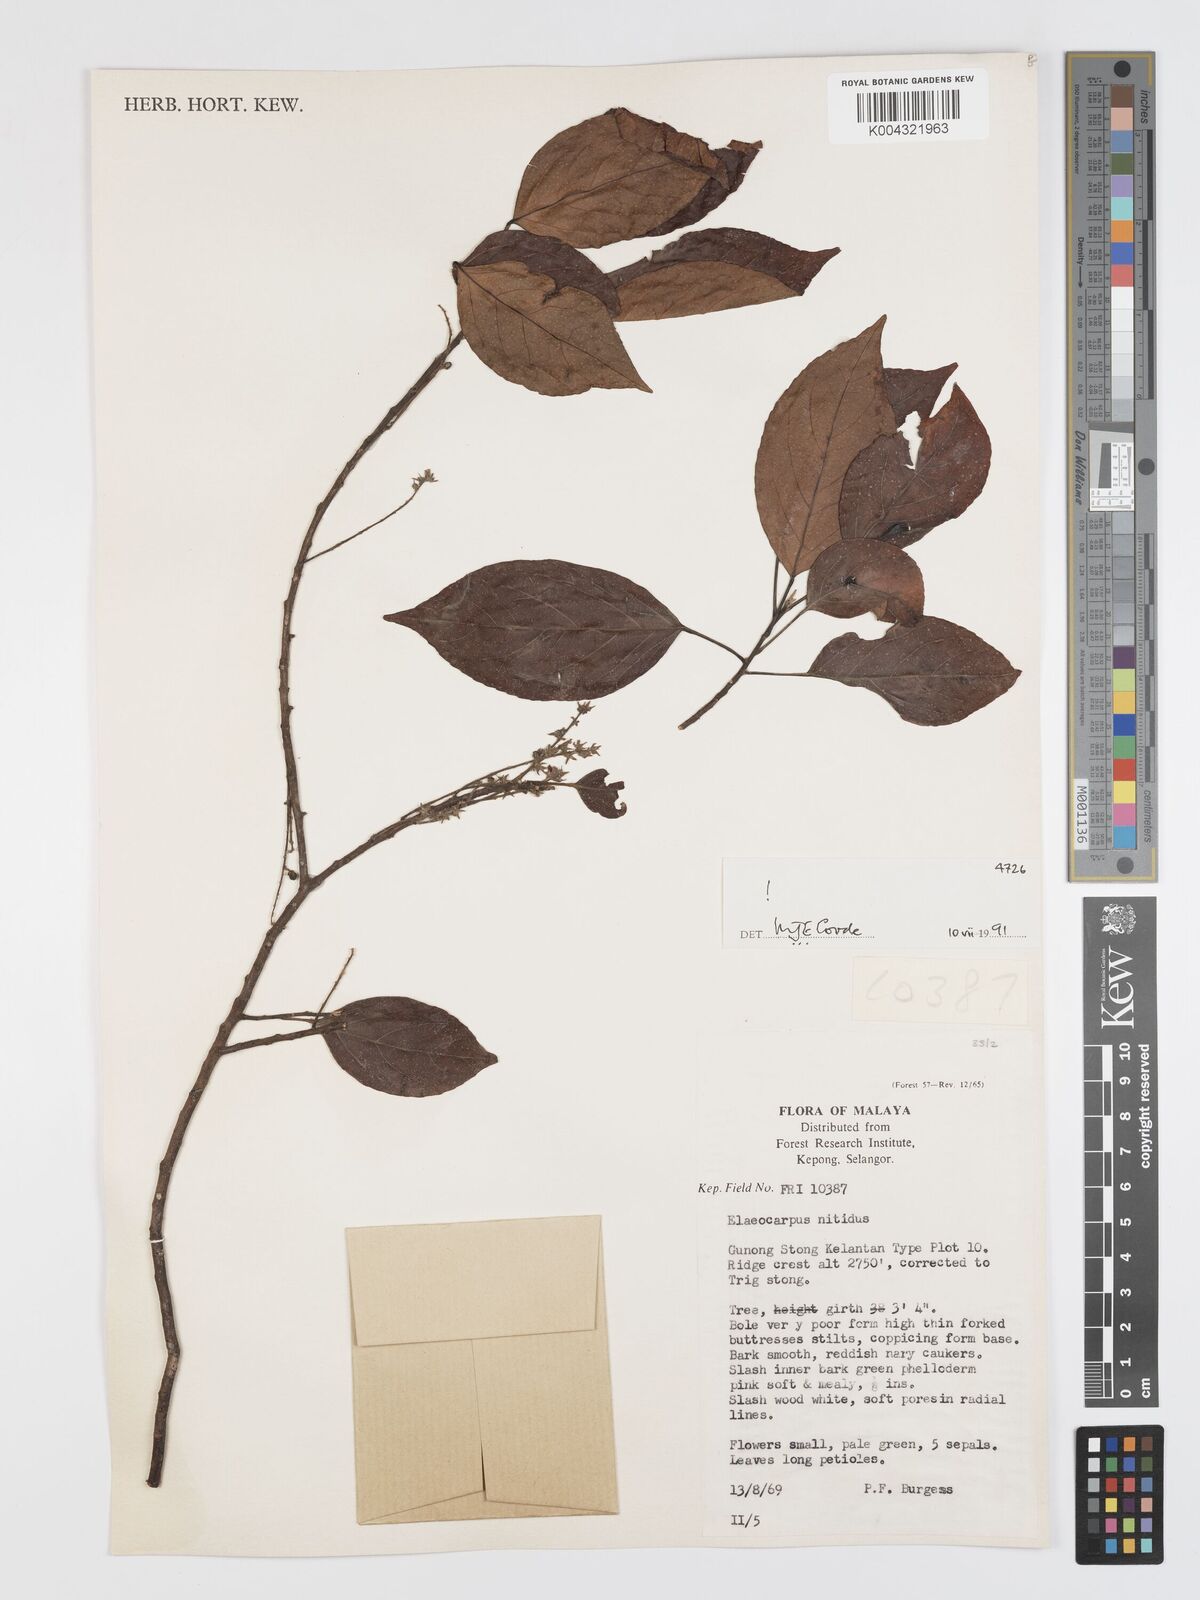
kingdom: Plantae
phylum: Tracheophyta
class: Magnoliopsida
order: Oxalidales
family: Elaeocarpaceae
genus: Elaeocarpus
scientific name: Elaeocarpus nitidus
